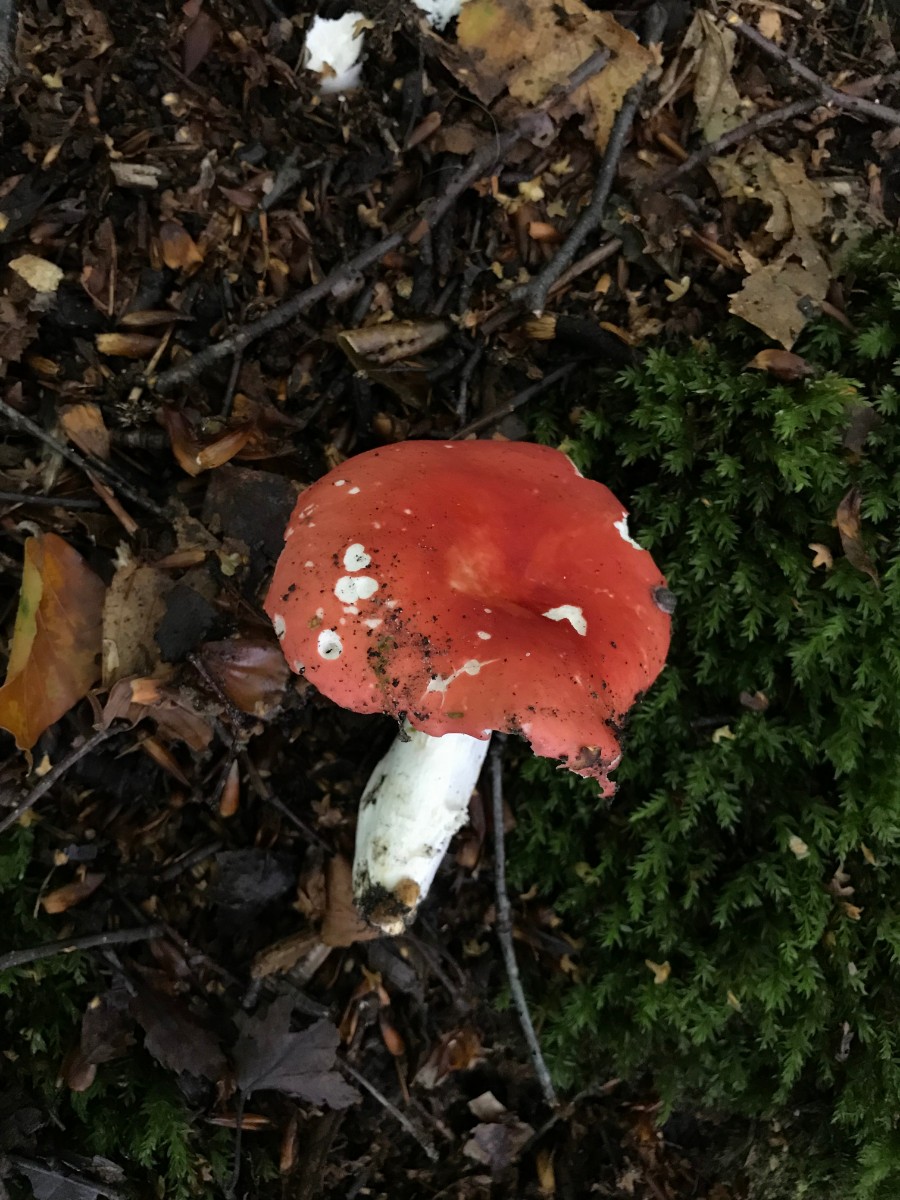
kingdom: Fungi
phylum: Basidiomycota
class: Agaricomycetes
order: Russulales
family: Russulaceae
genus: Russula
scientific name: Russula rosea
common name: fastkødet skørhat
